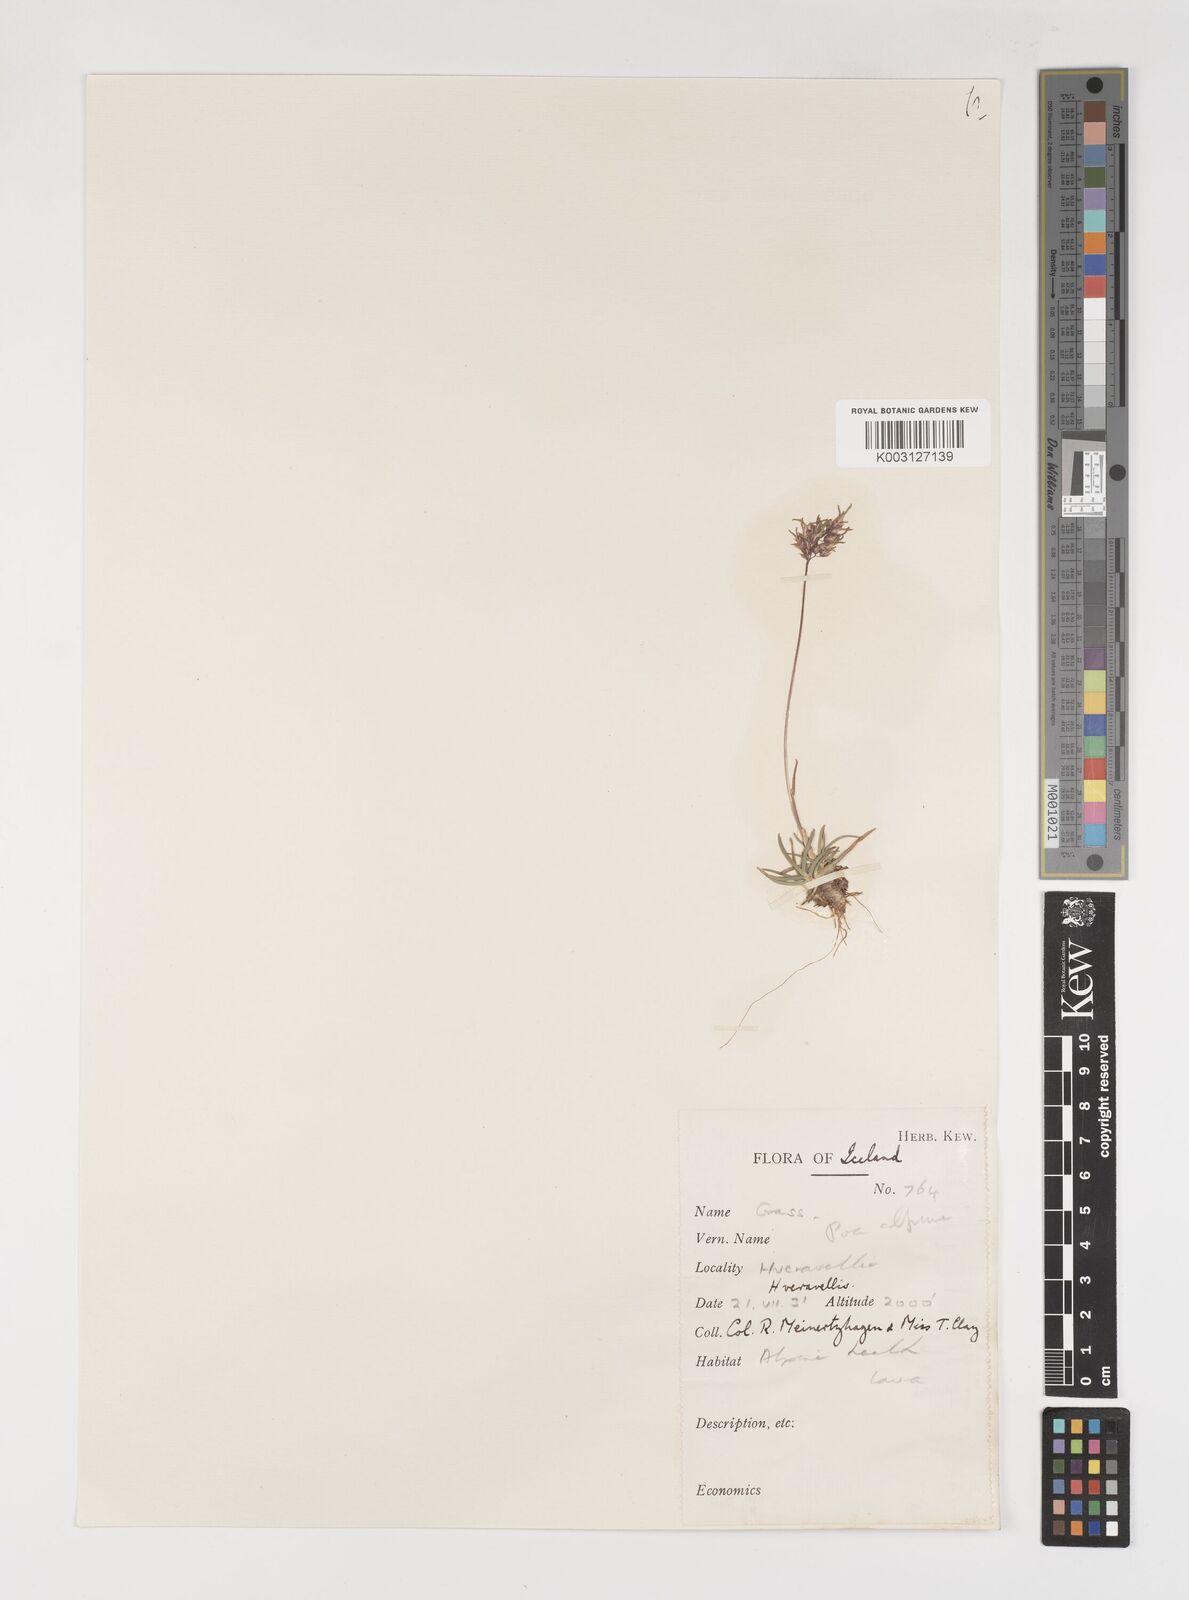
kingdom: Plantae
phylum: Tracheophyta
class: Liliopsida
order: Poales
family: Poaceae
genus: Poa
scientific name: Poa alpina
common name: Alpine bluegrass
